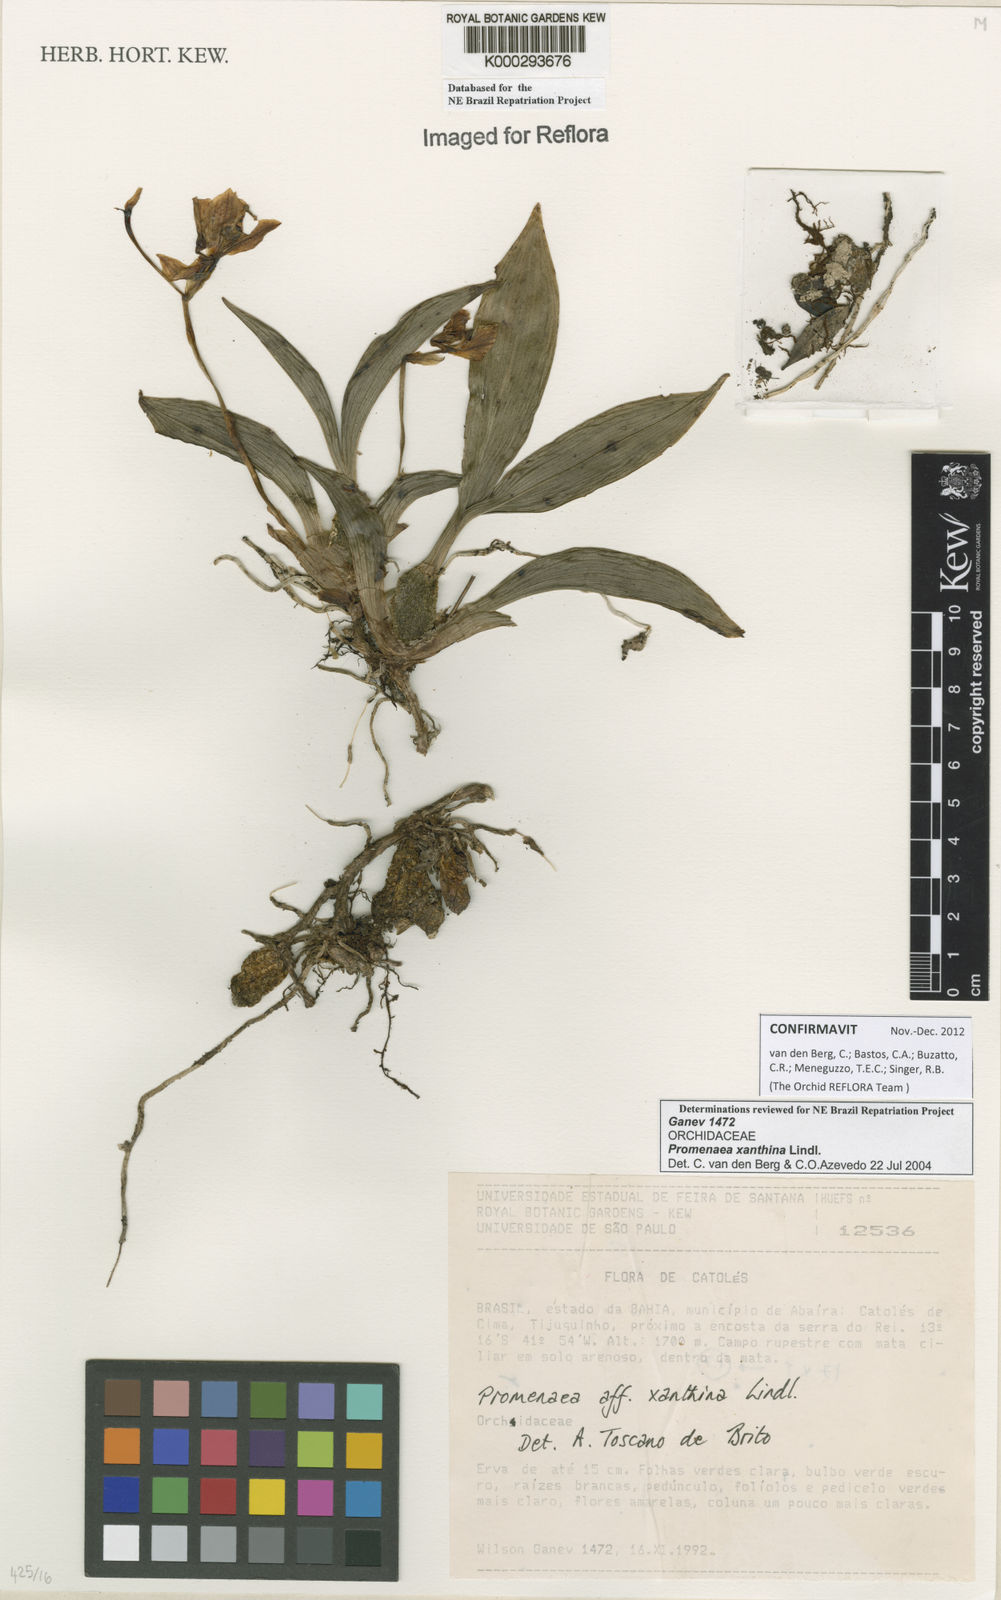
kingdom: Plantae
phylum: Tracheophyta
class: Liliopsida
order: Asparagales
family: Orchidaceae
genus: Promenaea
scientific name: Promenaea xanthina
